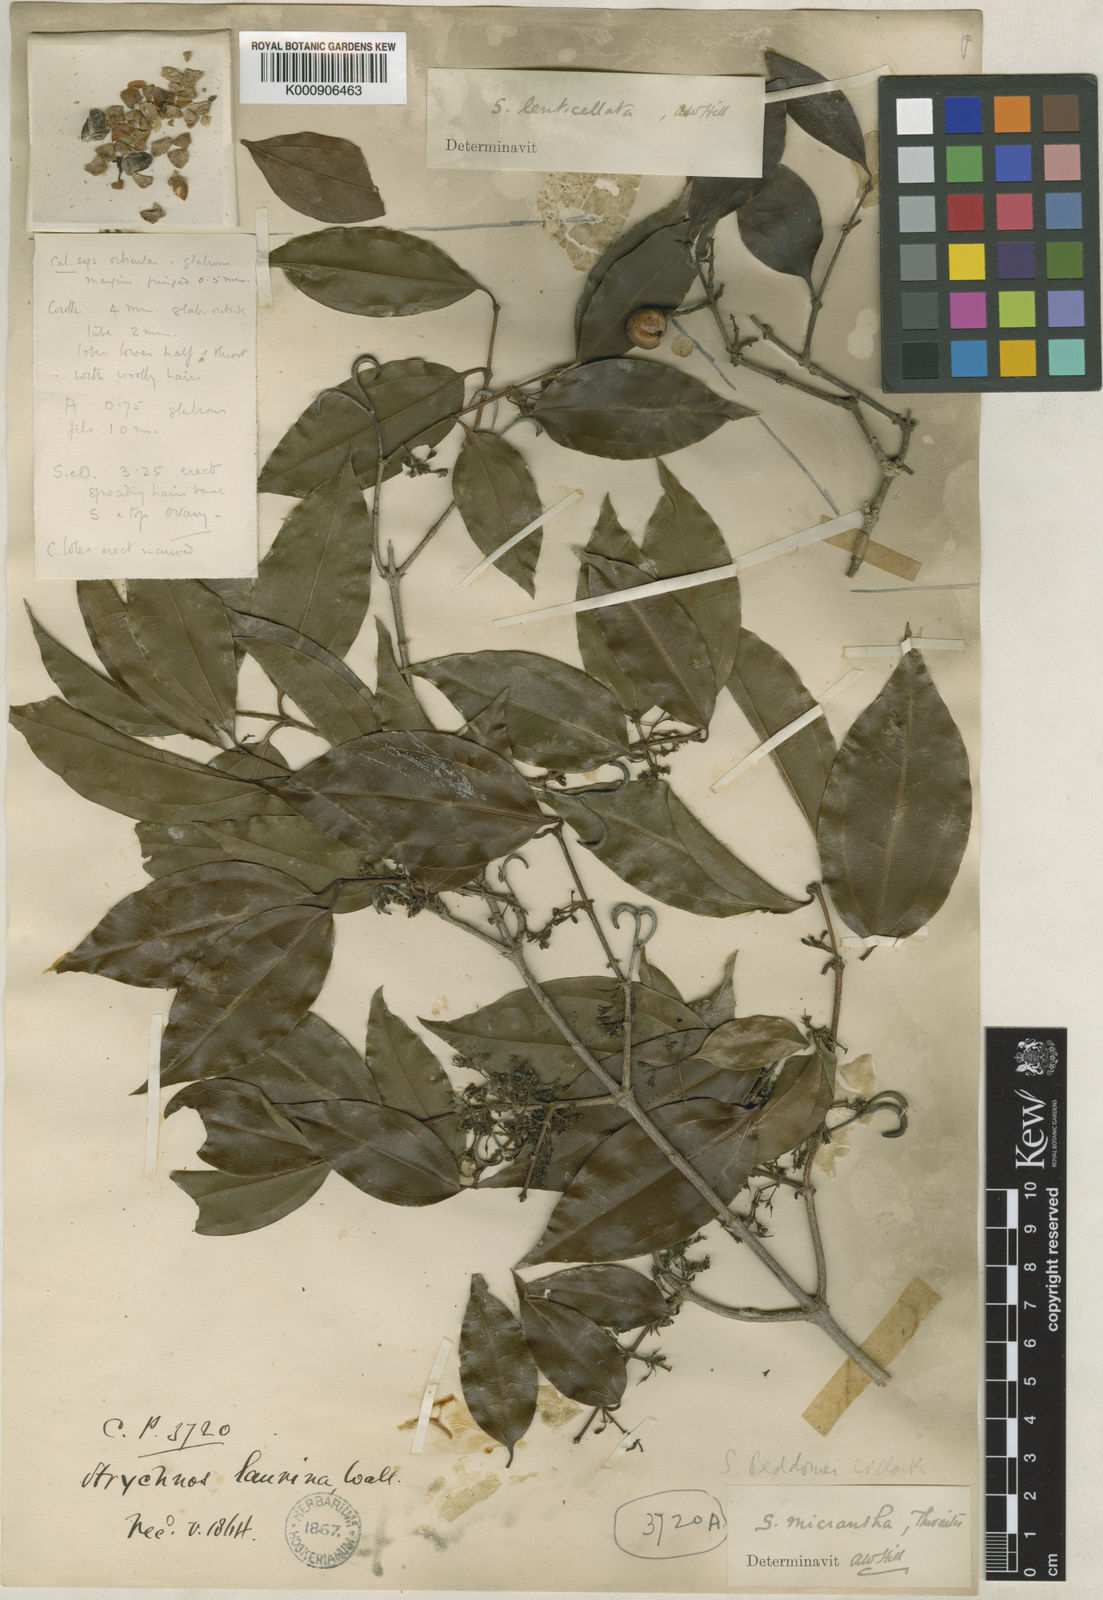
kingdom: Plantae
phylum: Tracheophyta
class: Magnoliopsida
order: Gentianales
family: Loganiaceae
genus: Strychnos
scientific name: Strychnos minor
